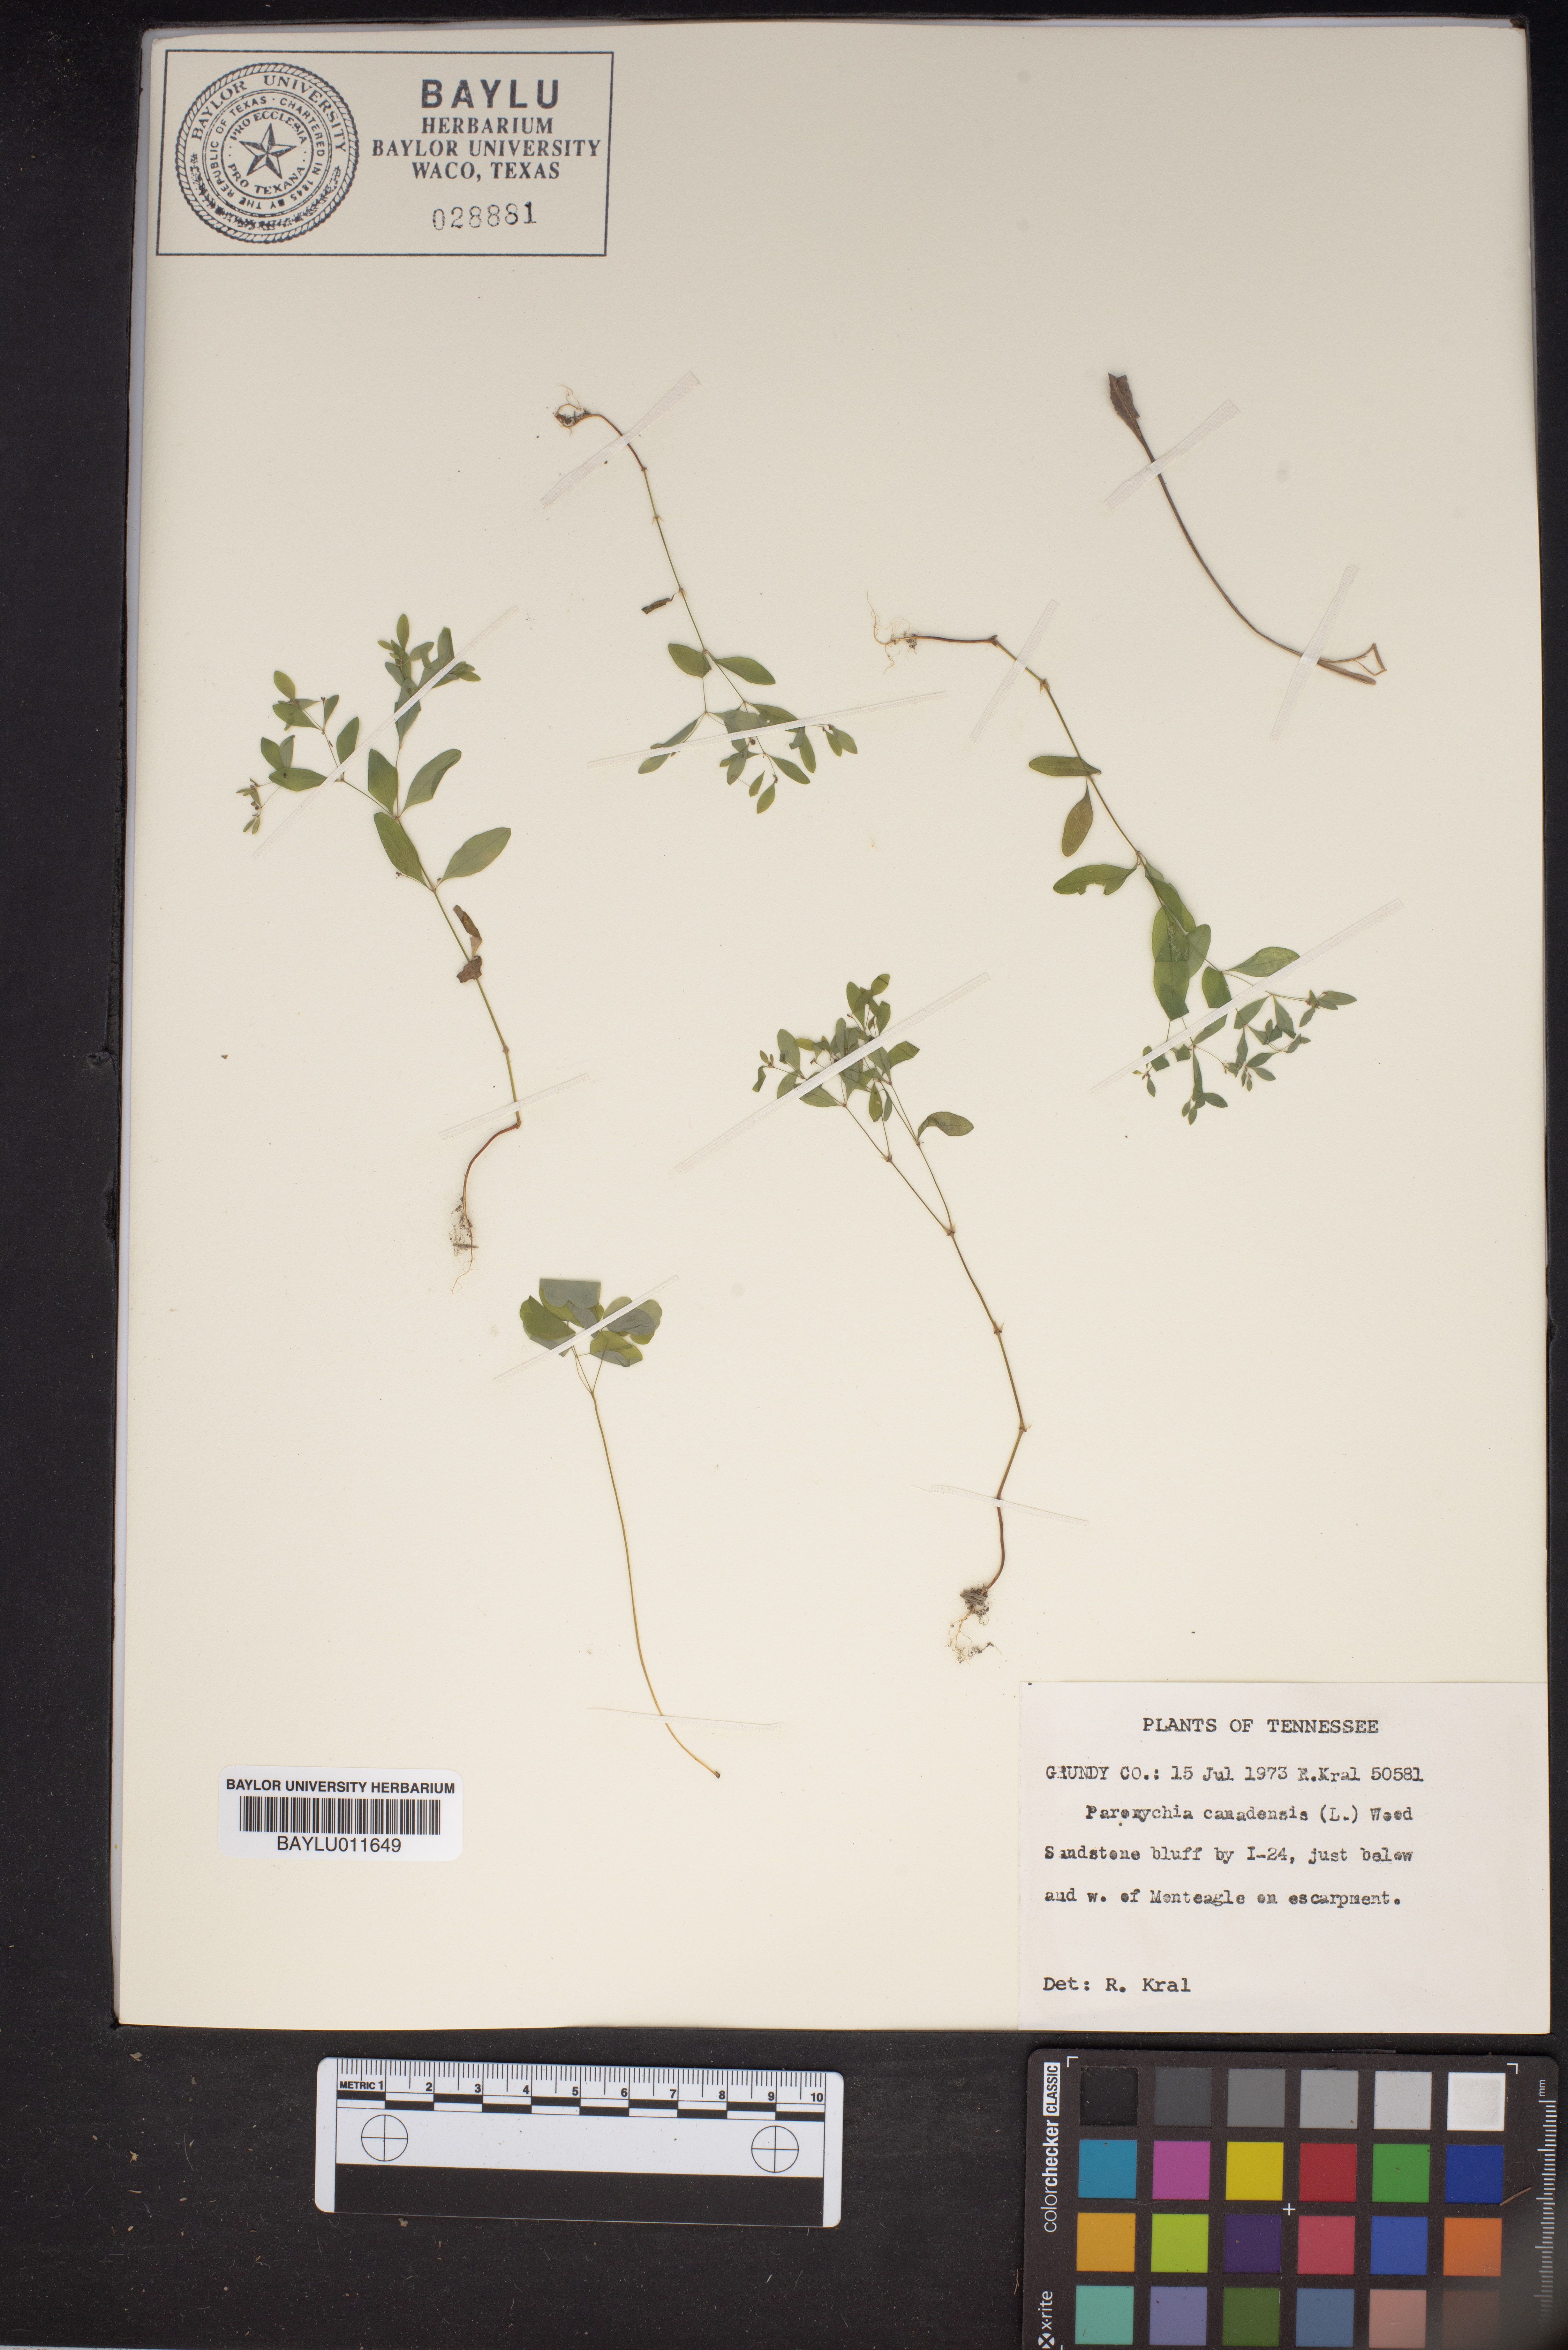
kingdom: Plantae
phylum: Tracheophyta
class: Magnoliopsida
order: Caryophyllales
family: Caryophyllaceae
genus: Paronychia
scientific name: Paronychia canadensis
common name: Canada forked nailwort
